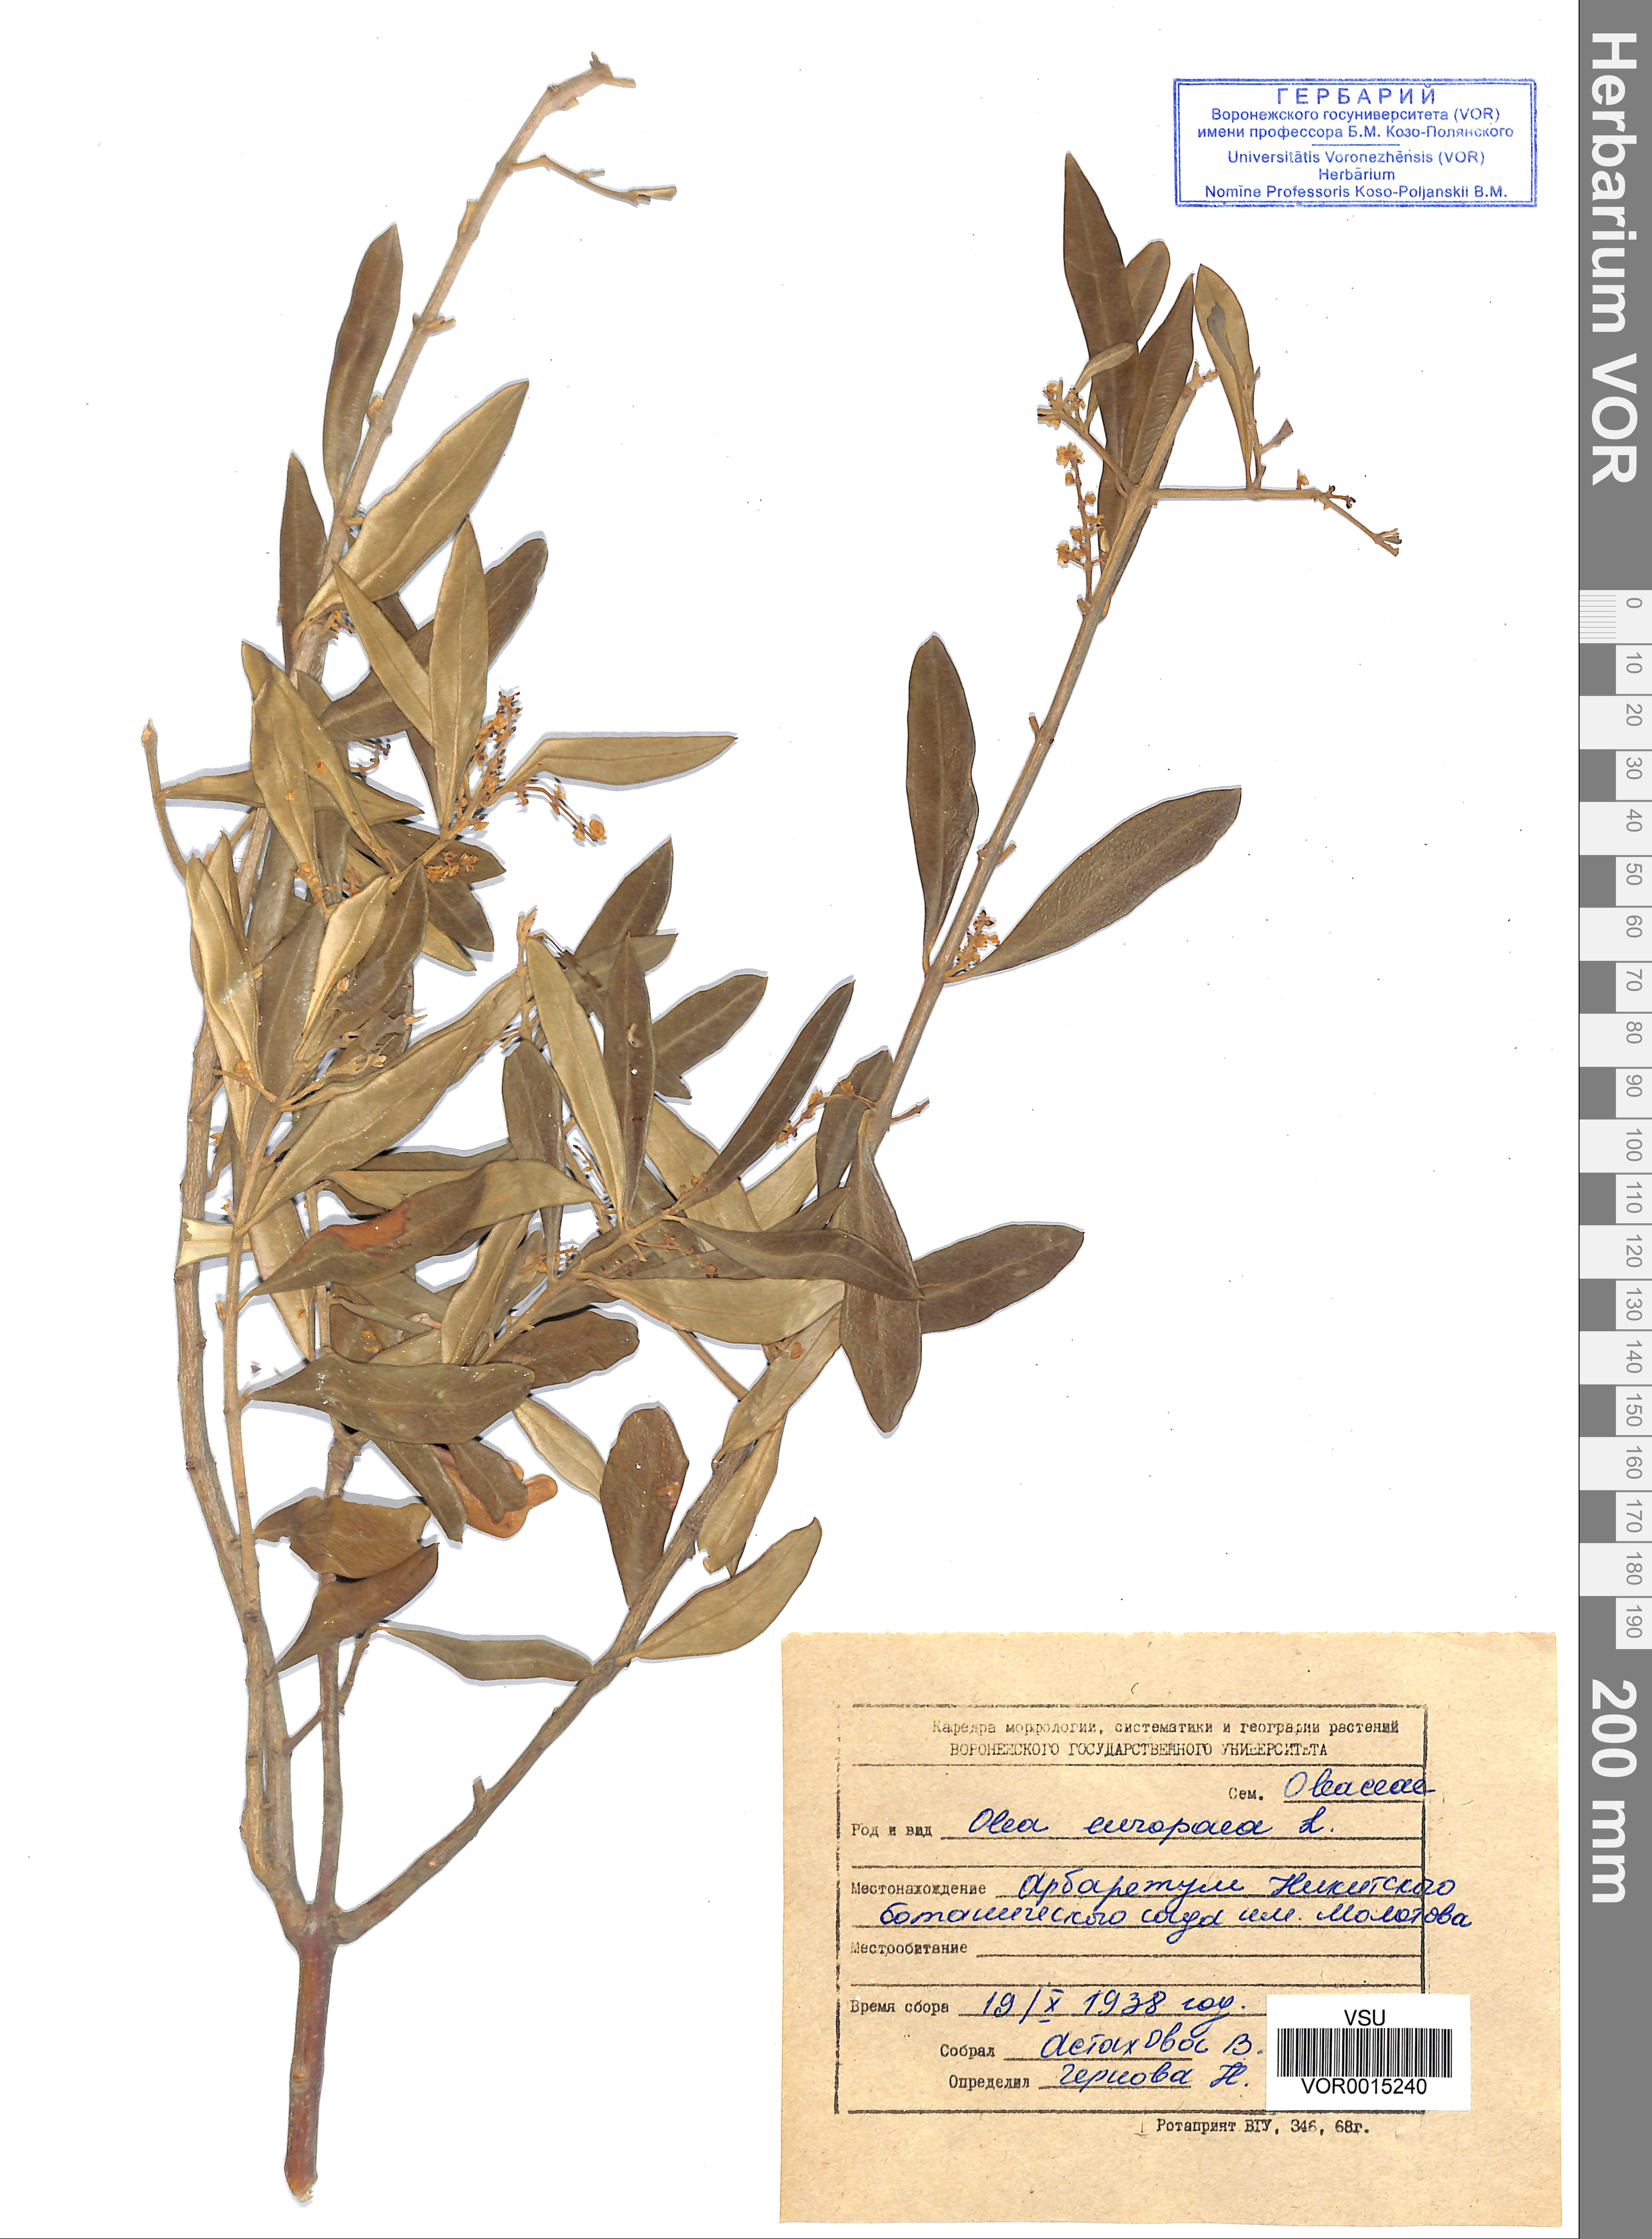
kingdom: Plantae
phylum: Tracheophyta
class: Magnoliopsida
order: Lamiales
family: Oleaceae
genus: Olea
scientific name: Olea europaea
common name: Olive
